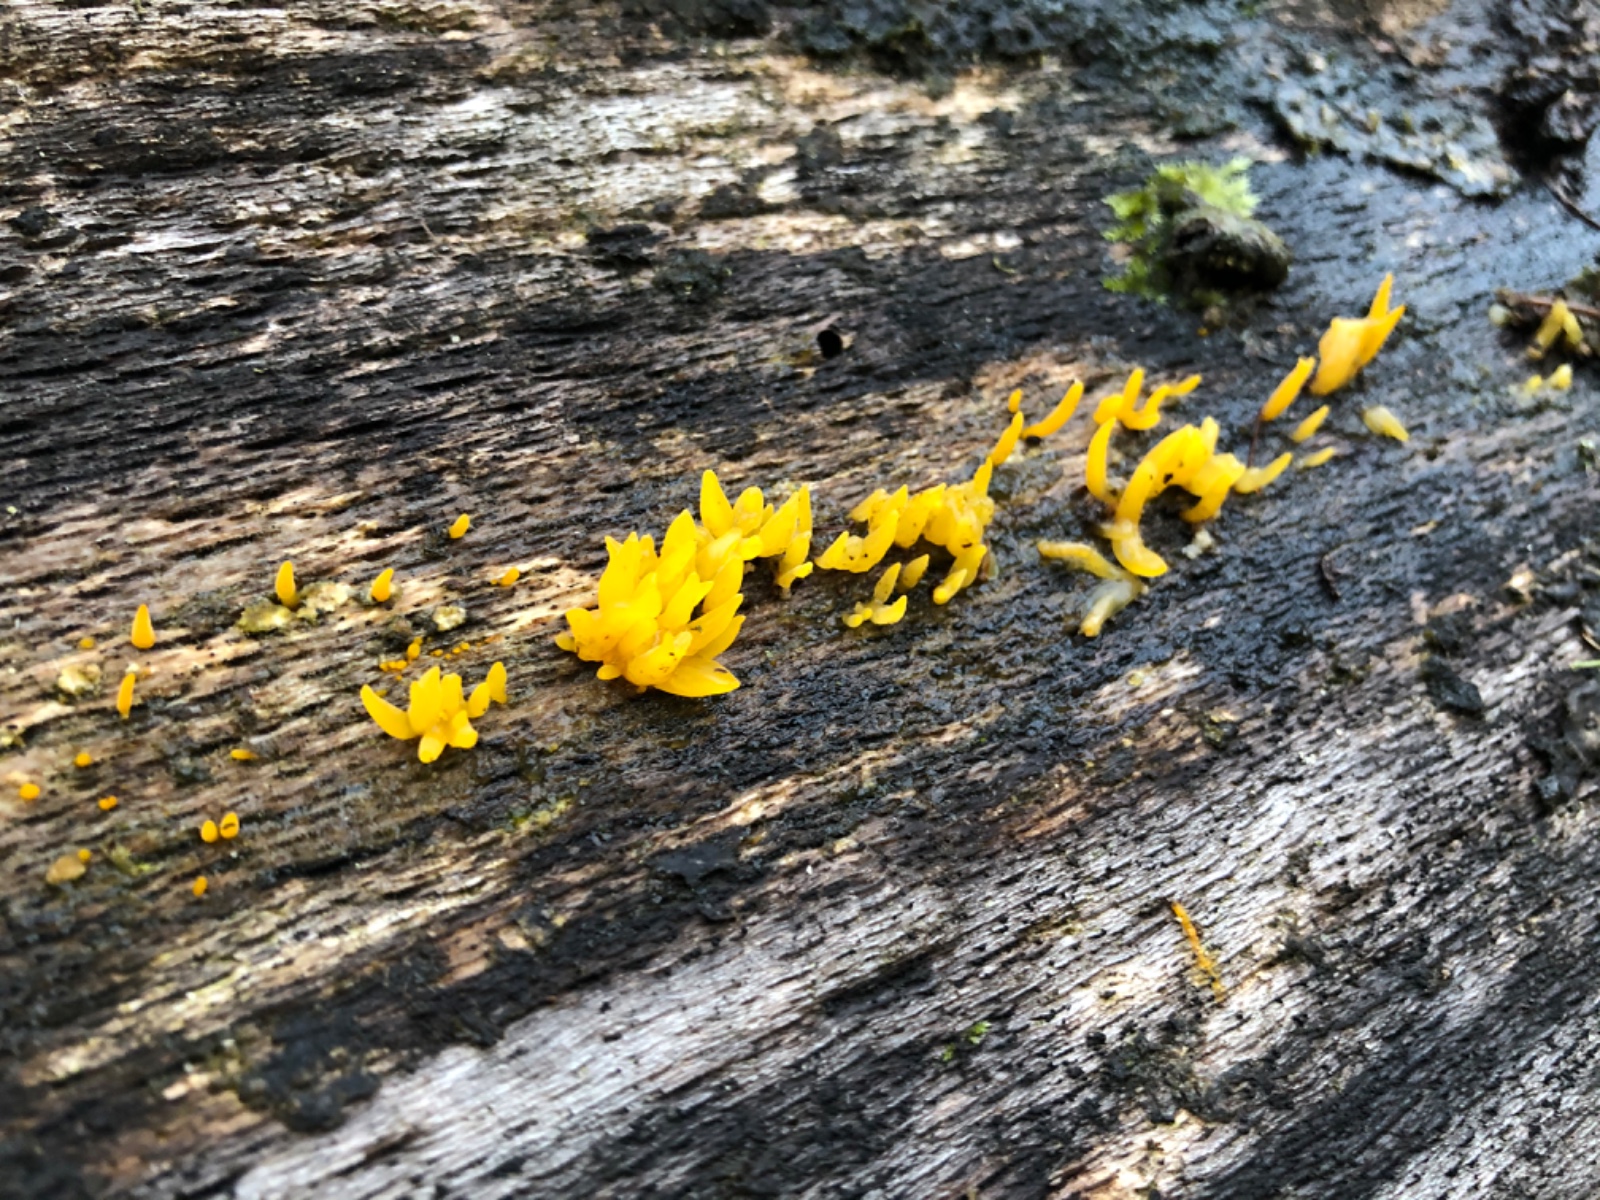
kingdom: Fungi
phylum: Basidiomycota
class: Dacrymycetes
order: Dacrymycetales
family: Dacrymycetaceae
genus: Calocera
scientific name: Calocera cornea
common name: liden guldgaffel
